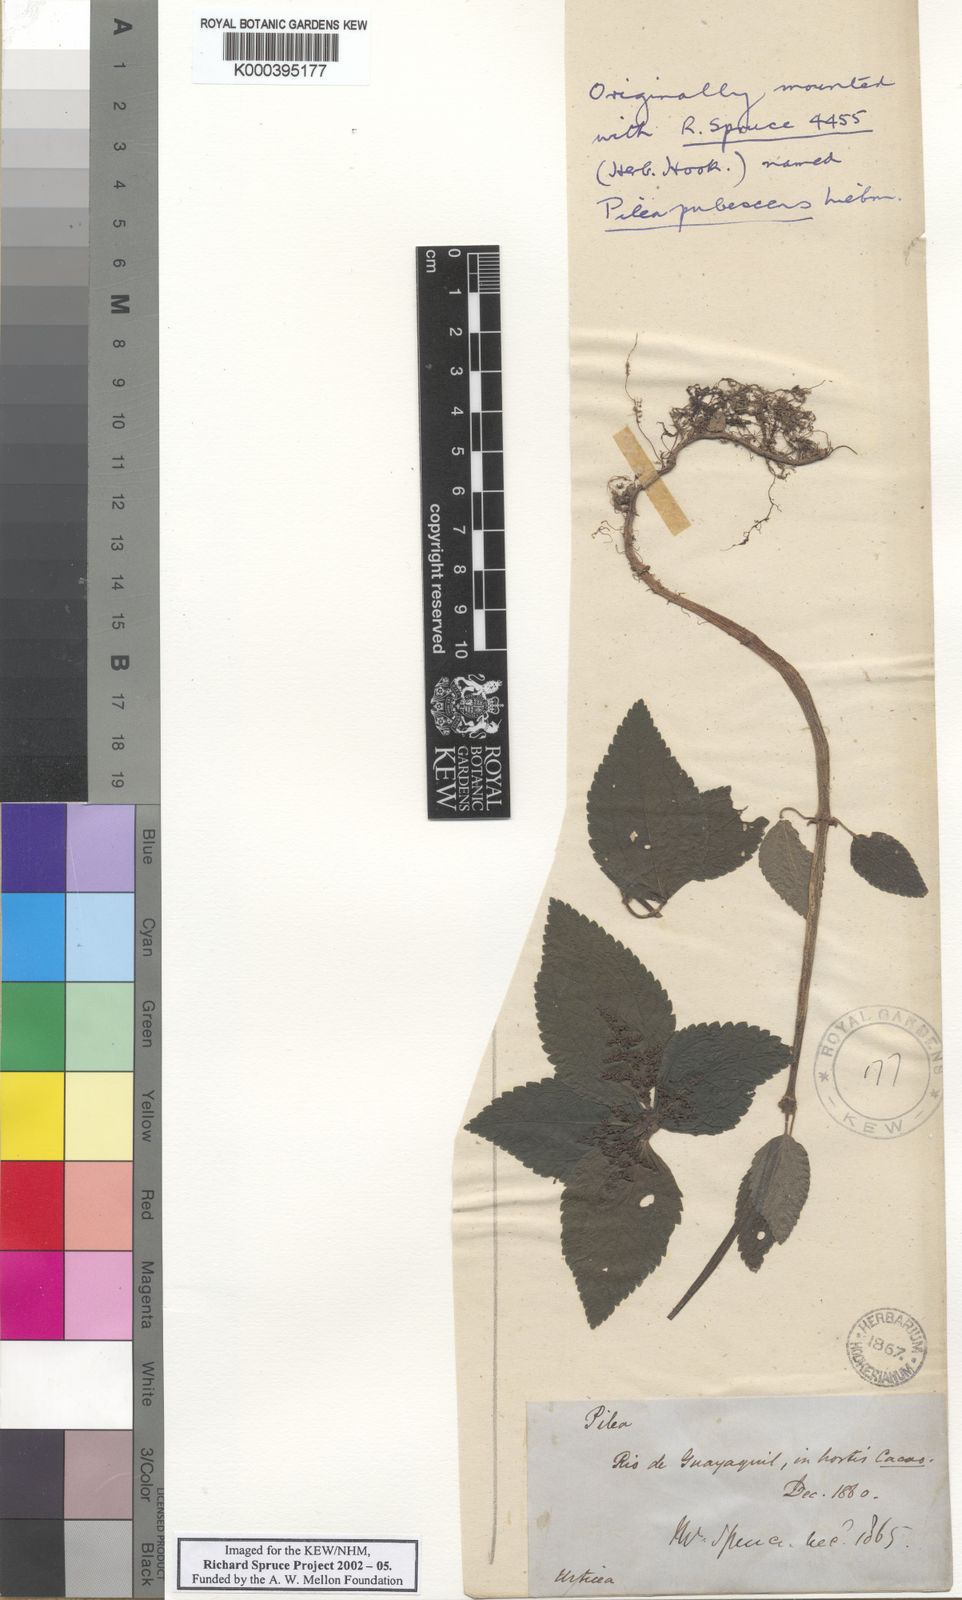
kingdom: Plantae
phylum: Tracheophyta
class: Magnoliopsida
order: Rosales
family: Urticaceae
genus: Pilea
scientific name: Pilea
